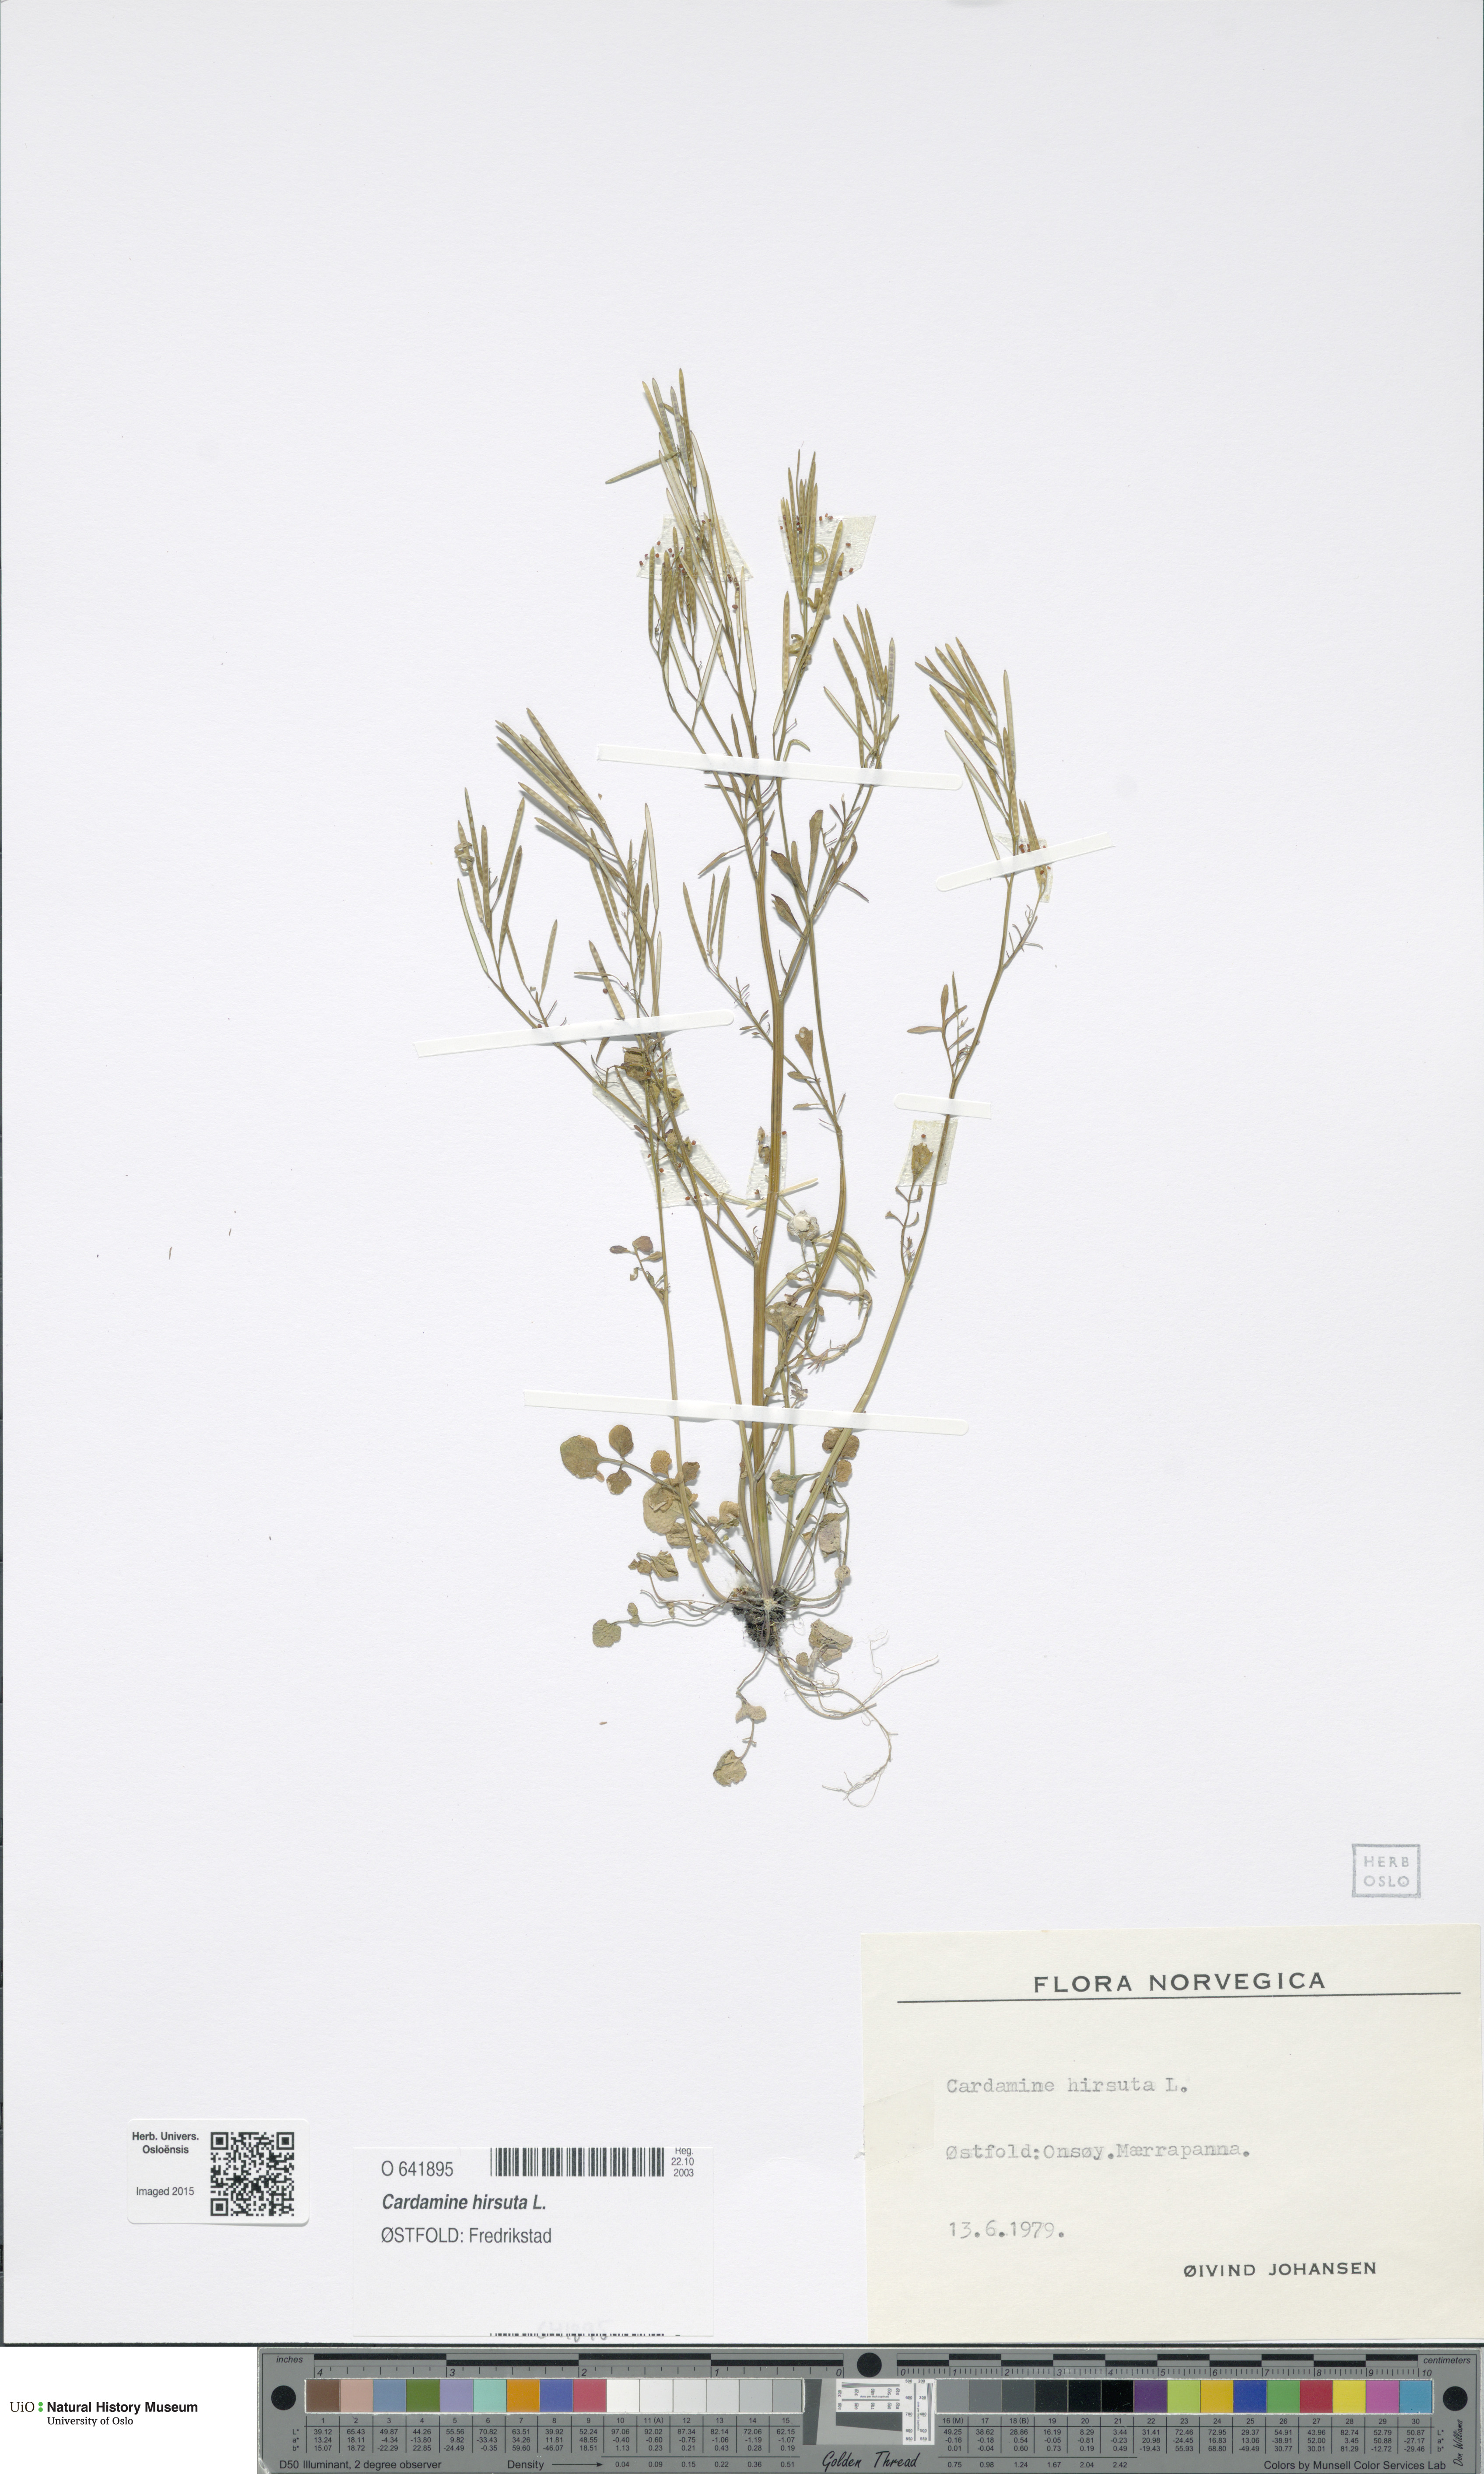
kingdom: Plantae
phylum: Tracheophyta
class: Magnoliopsida
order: Brassicales
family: Brassicaceae
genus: Cardamine
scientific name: Cardamine hirsuta
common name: Hairy bittercress
